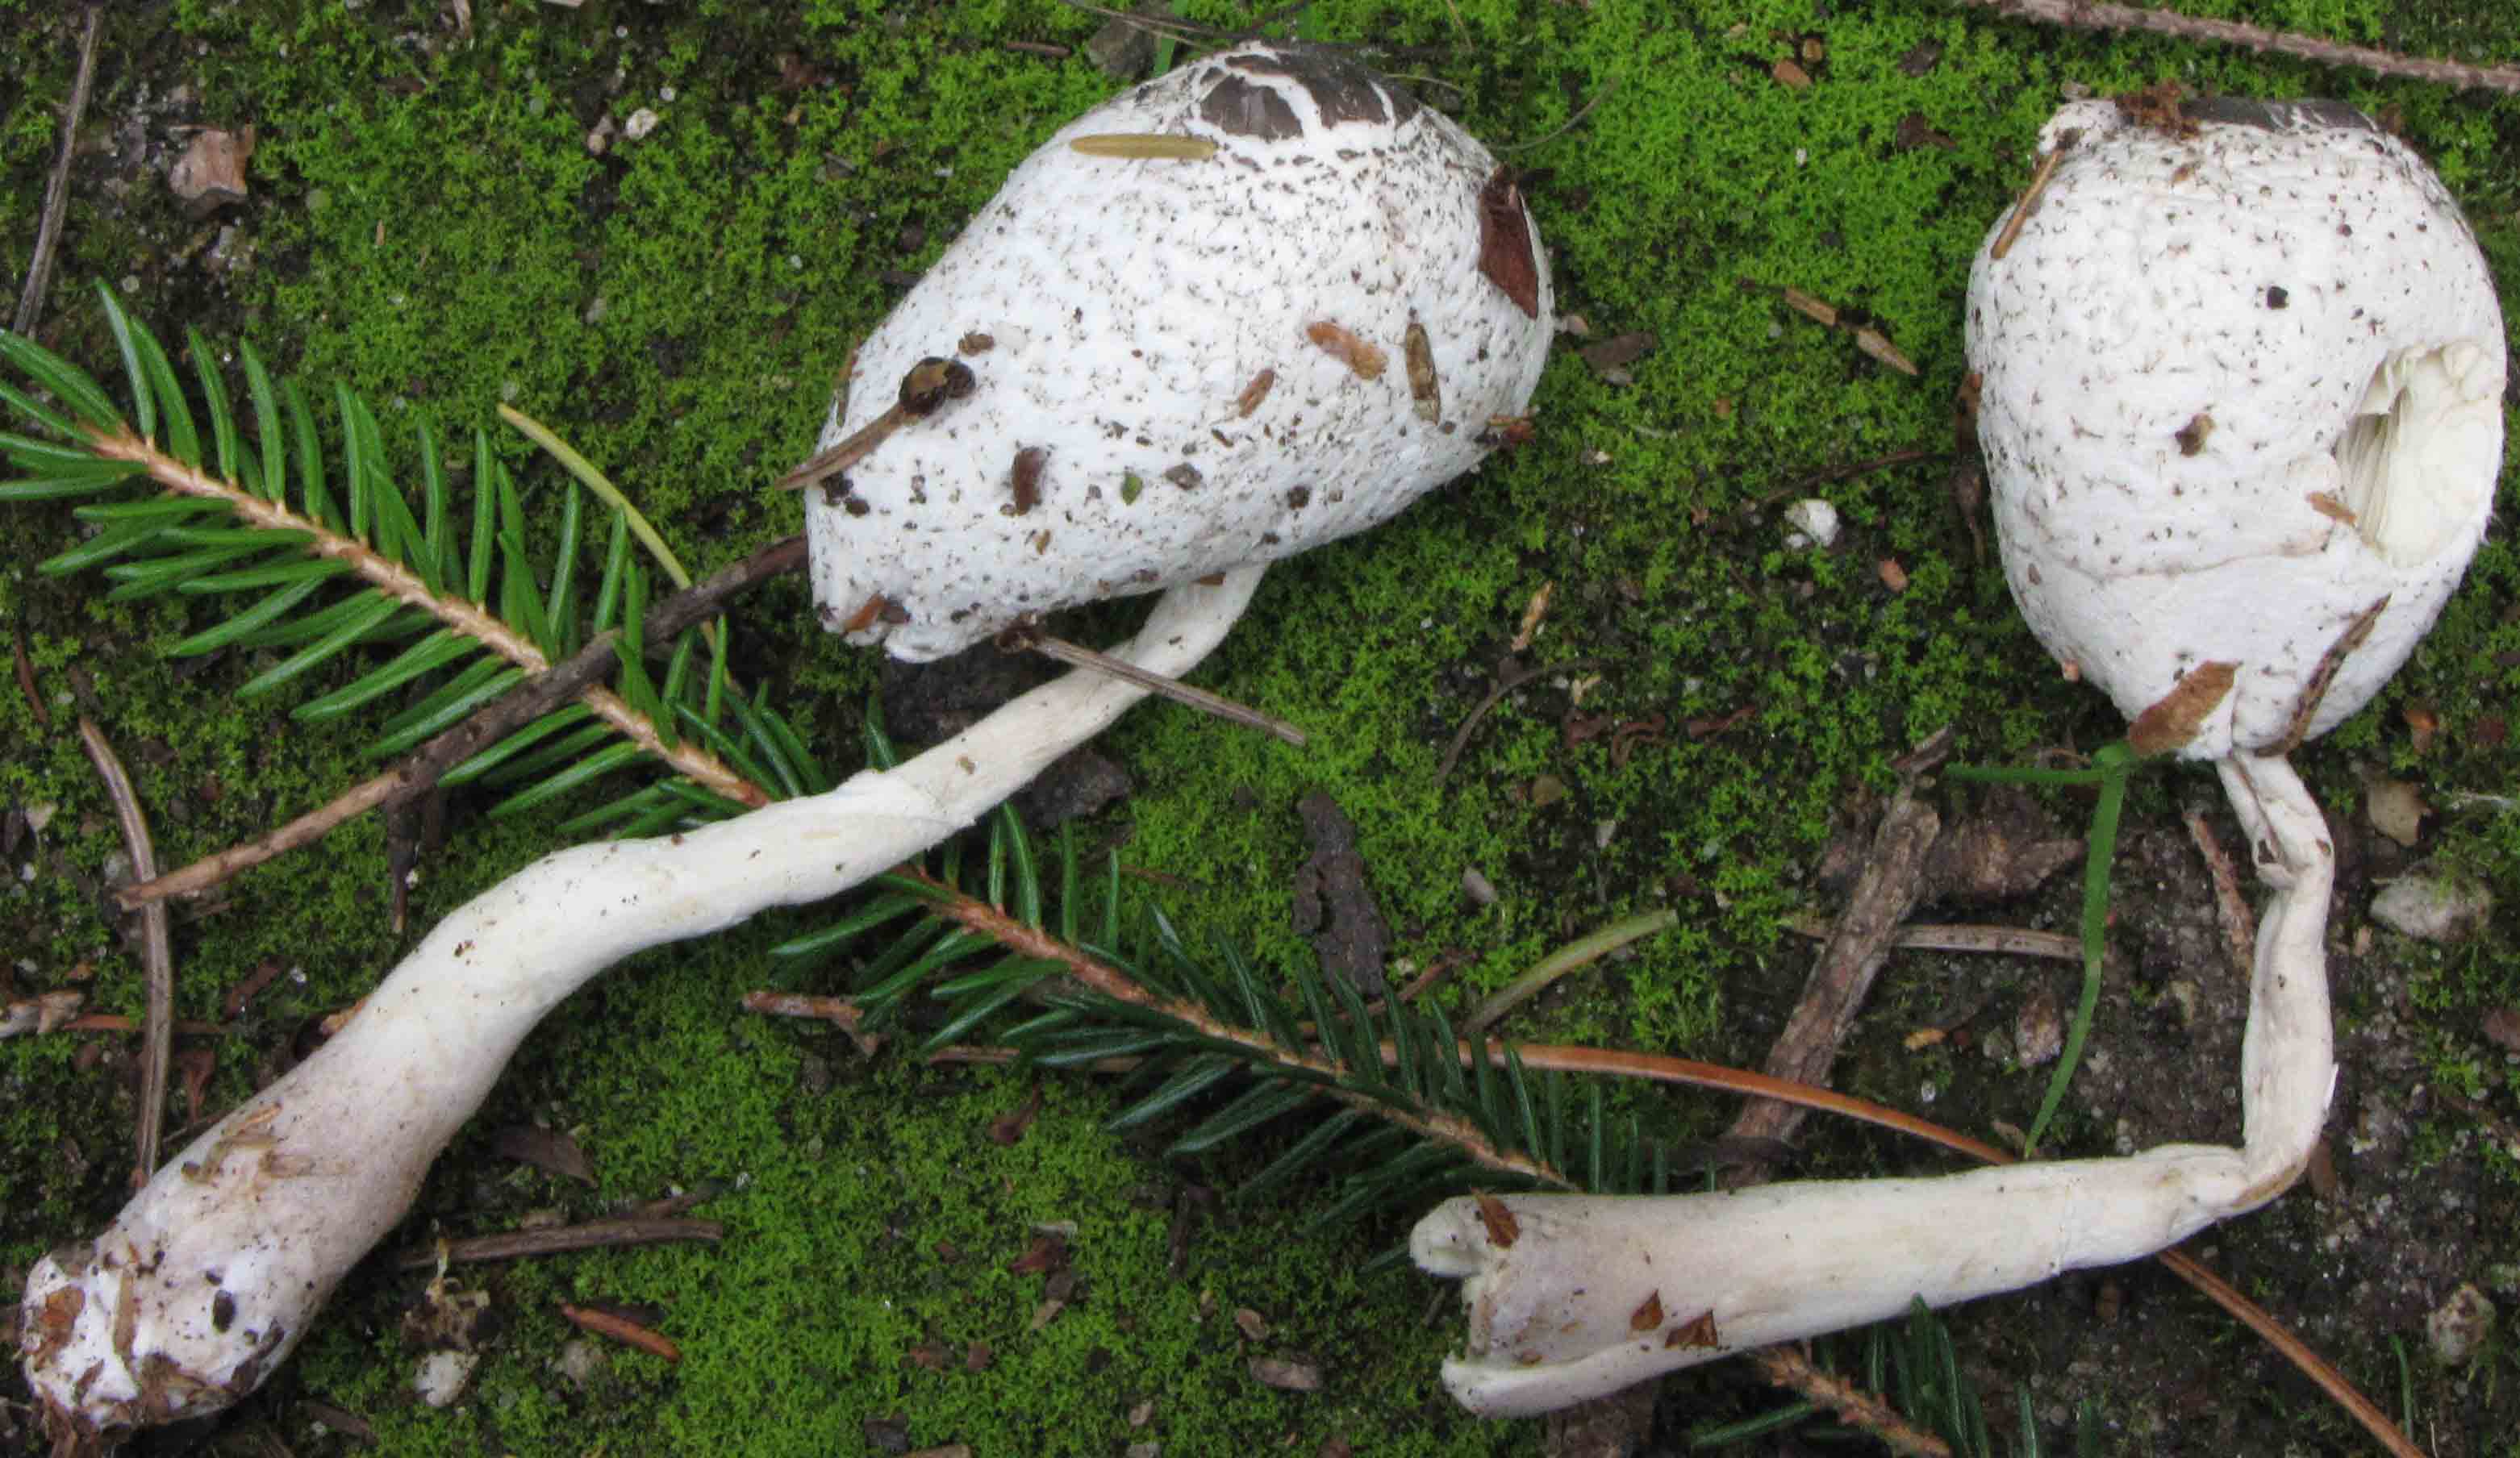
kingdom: Fungi
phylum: Basidiomycota
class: Agaricomycetes
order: Agaricales
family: Agaricaceae
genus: Leucocoprinus
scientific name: Leucocoprinus brebissonii
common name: gråsort silkehat
